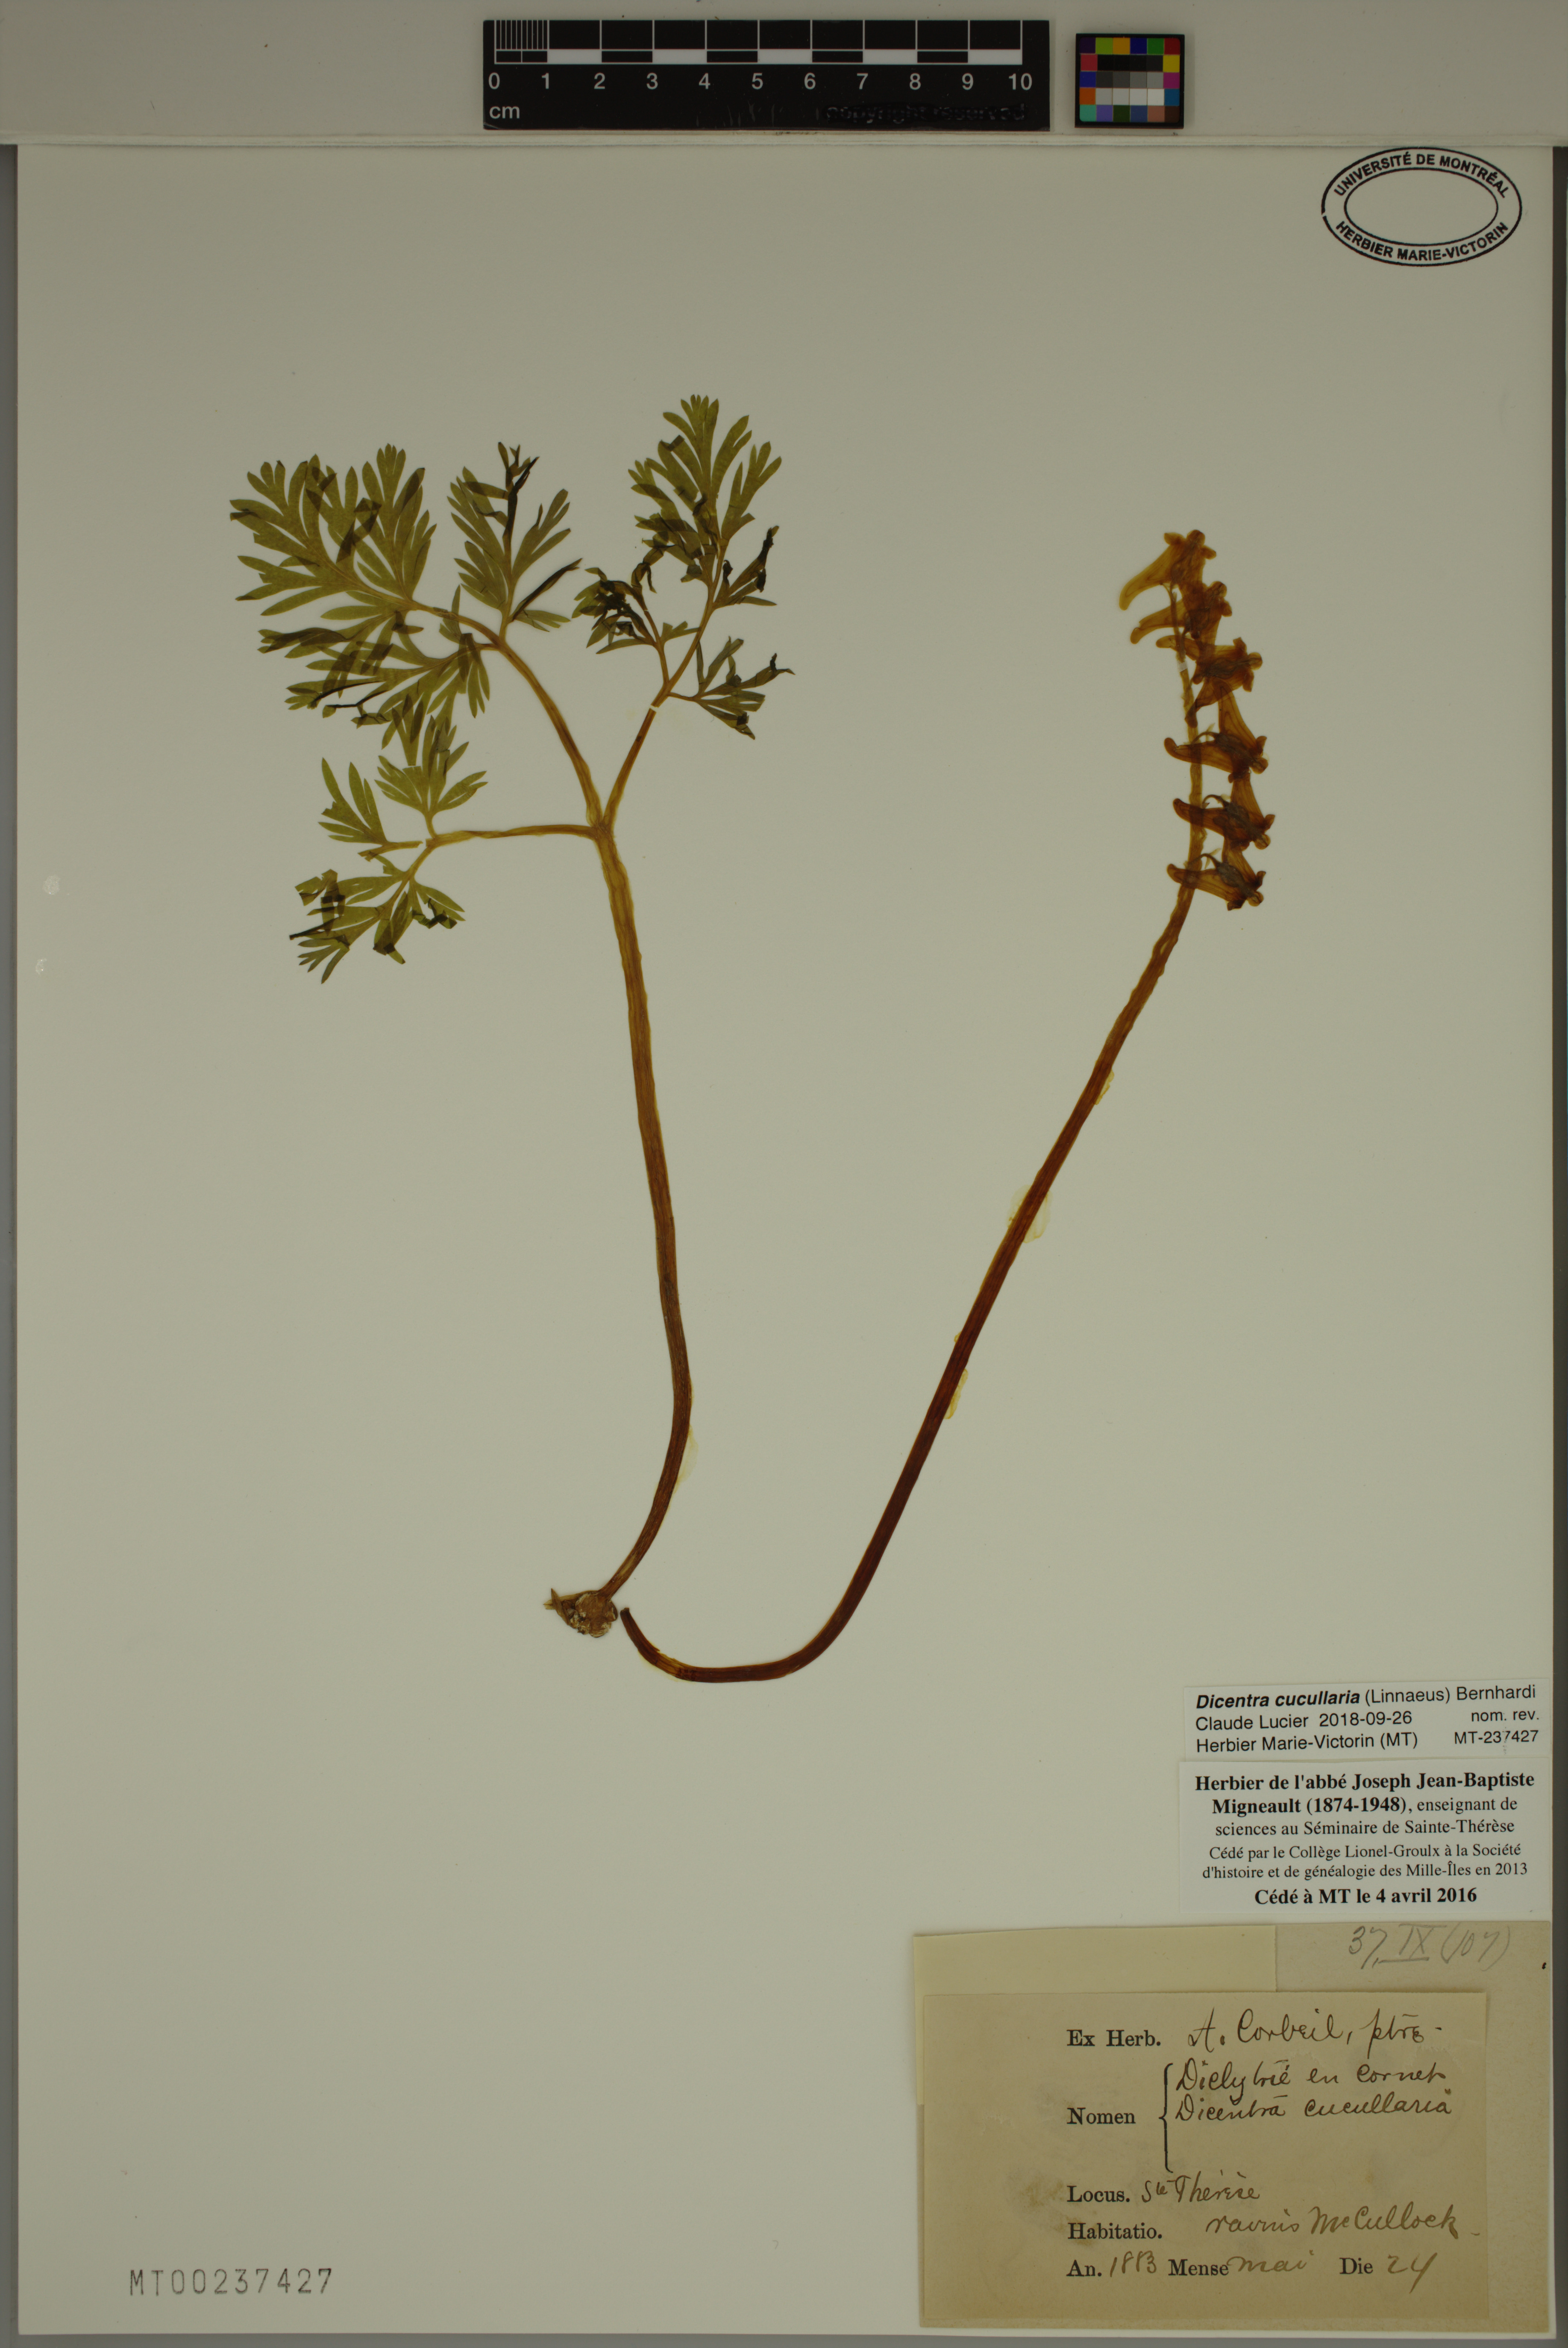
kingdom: Plantae
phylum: Tracheophyta
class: Magnoliopsida
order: Ranunculales
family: Papaveraceae
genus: Dicentra
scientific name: Dicentra cucullaria
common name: Dutchman's breeches
